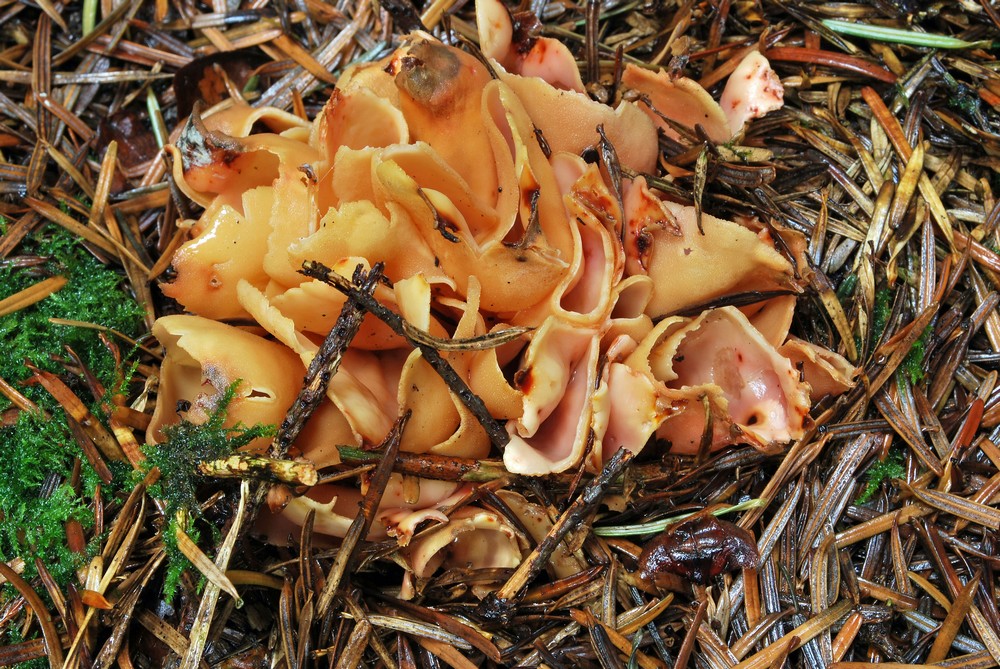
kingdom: Fungi
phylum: Ascomycota
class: Pezizomycetes
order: Pezizales
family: Otideaceae
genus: Otidea
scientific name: Otidea onotica
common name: æsel-ørebæger
